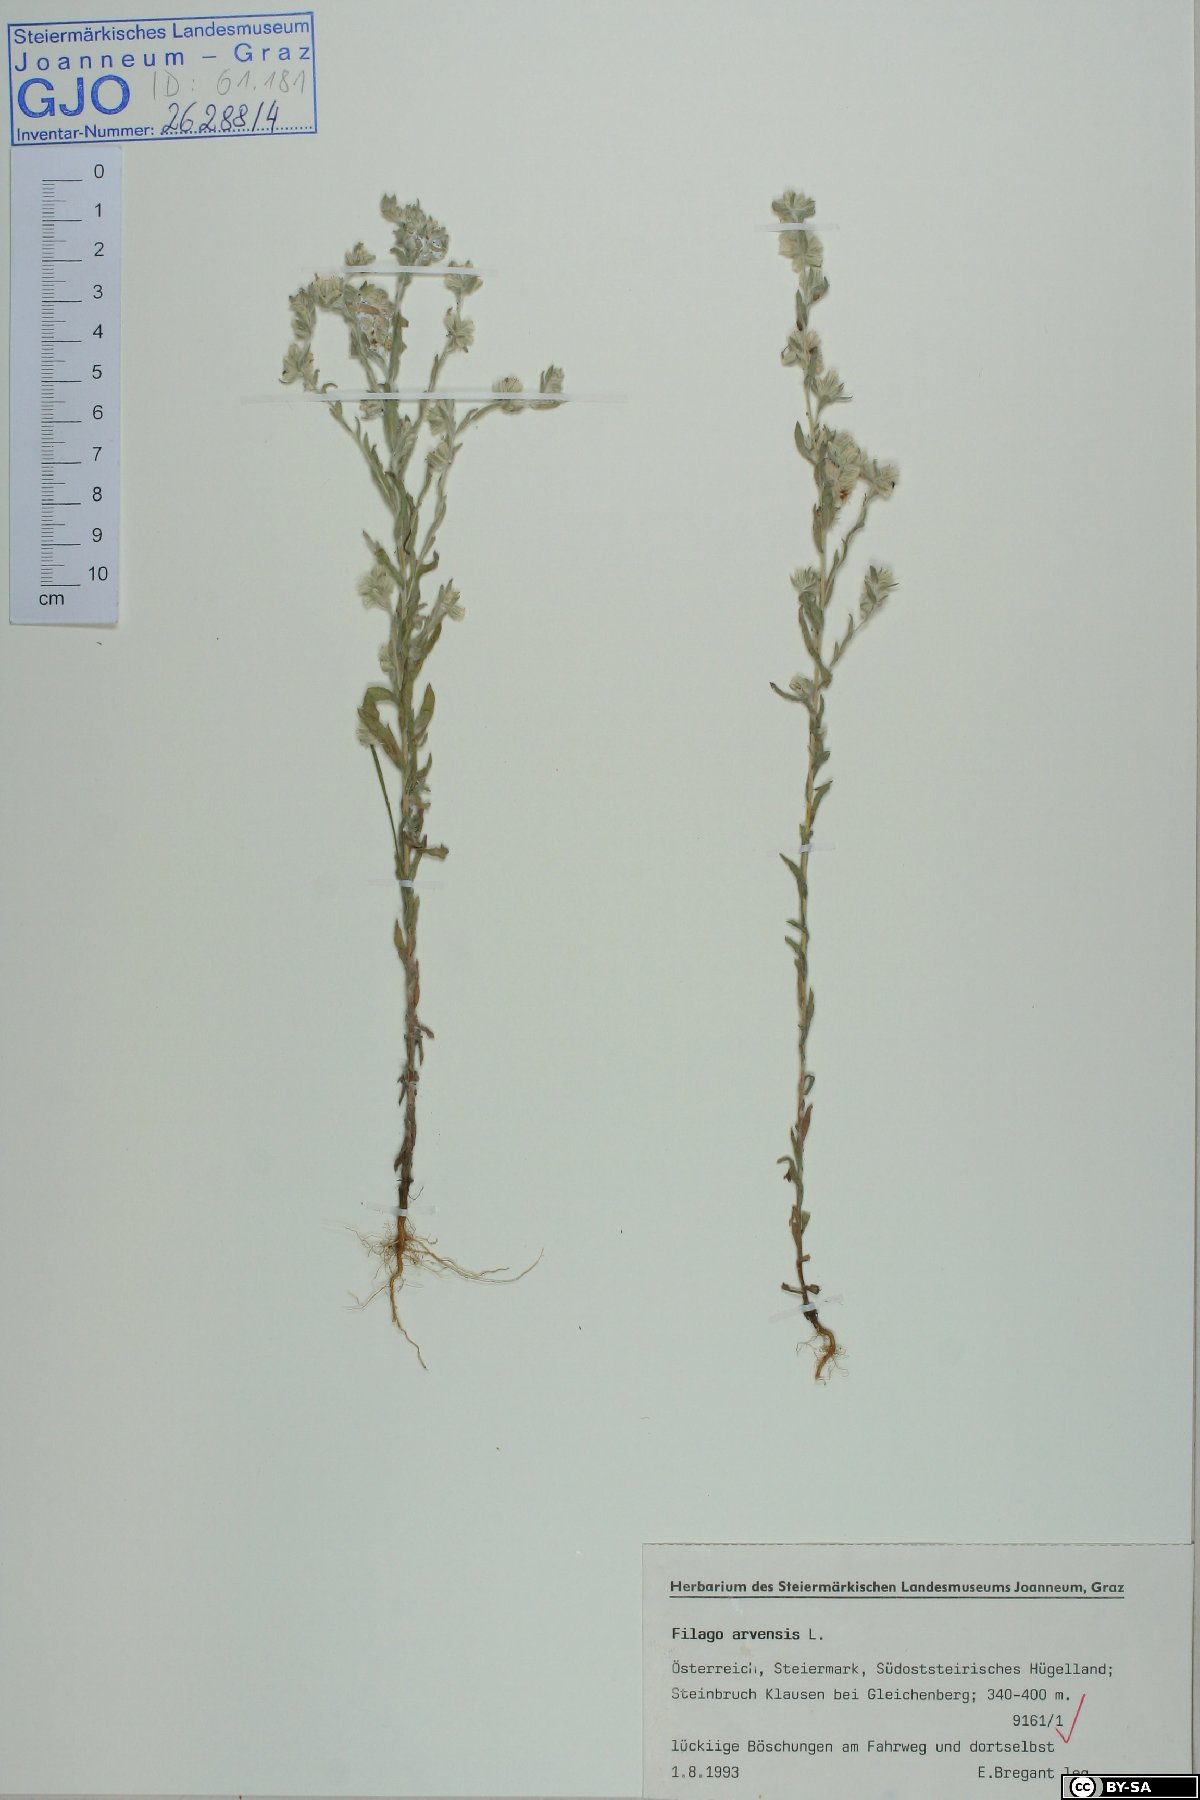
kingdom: Plantae
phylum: Tracheophyta
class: Magnoliopsida
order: Asterales
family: Asteraceae
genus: Filago
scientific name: Filago arvensis
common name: Field cudweed
